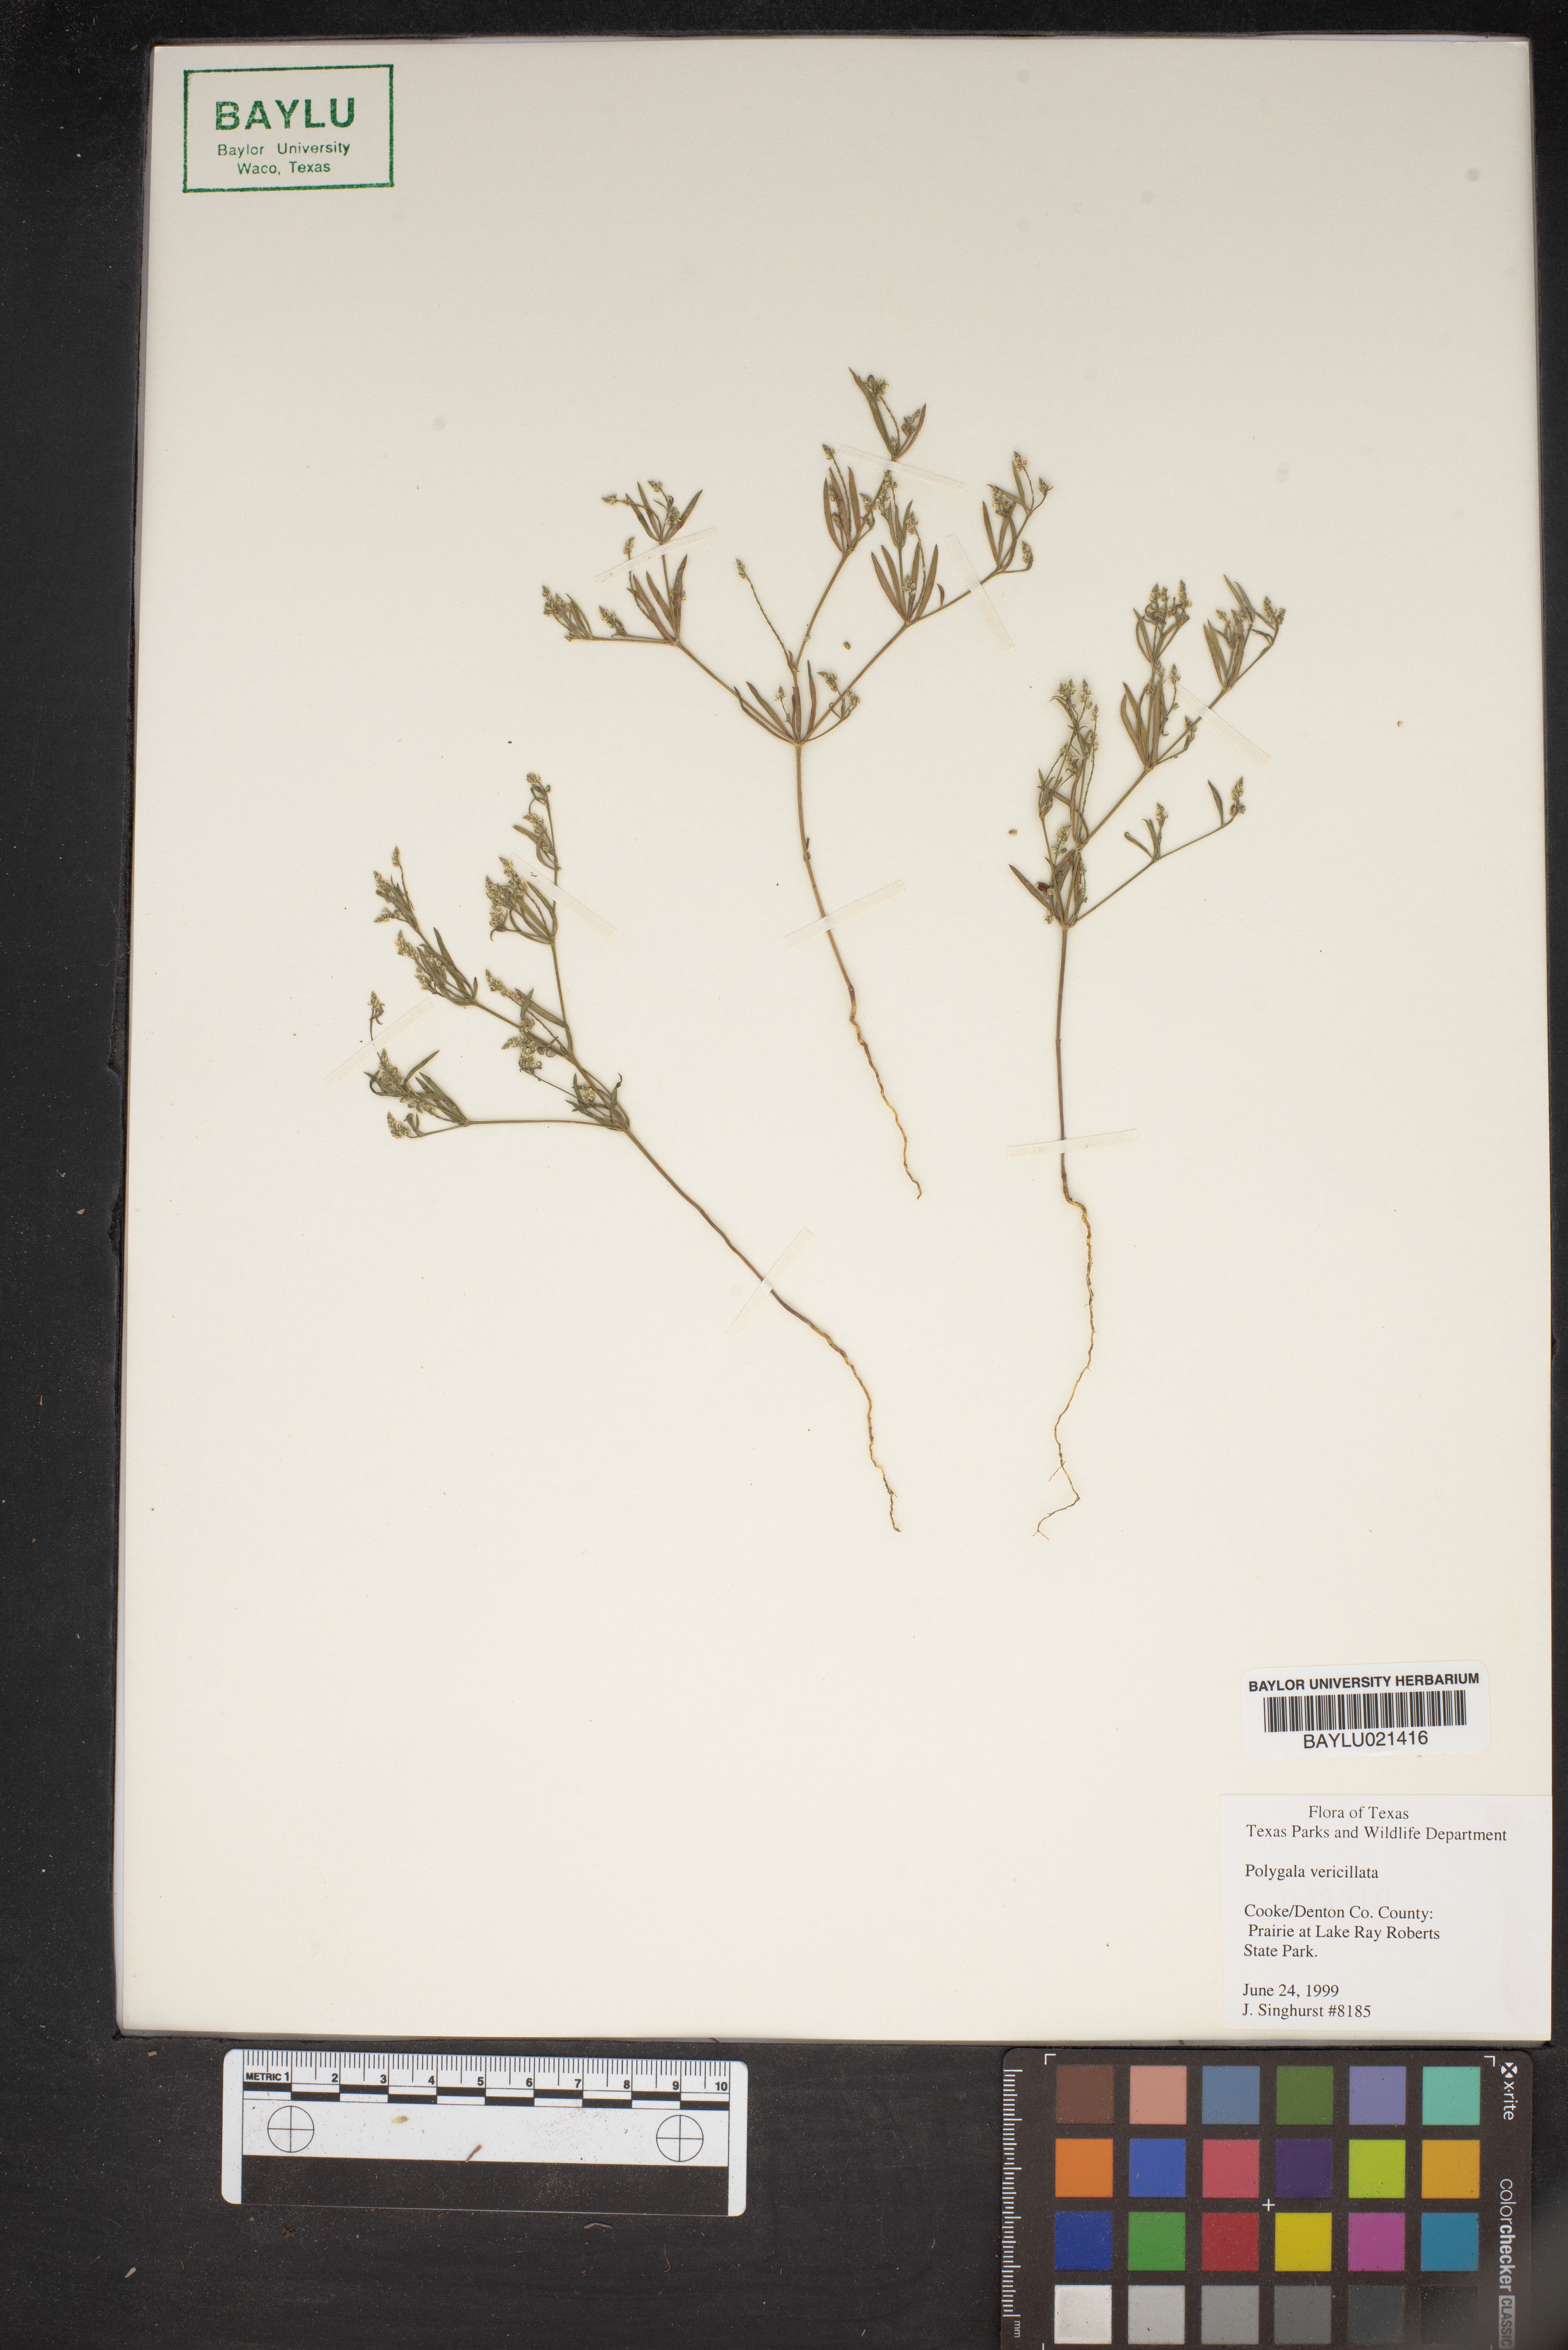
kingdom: Plantae
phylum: Tracheophyta
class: Magnoliopsida
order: Fabales
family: Polygalaceae
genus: Polygala
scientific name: Polygala verticillata
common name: Whorl milkwort
